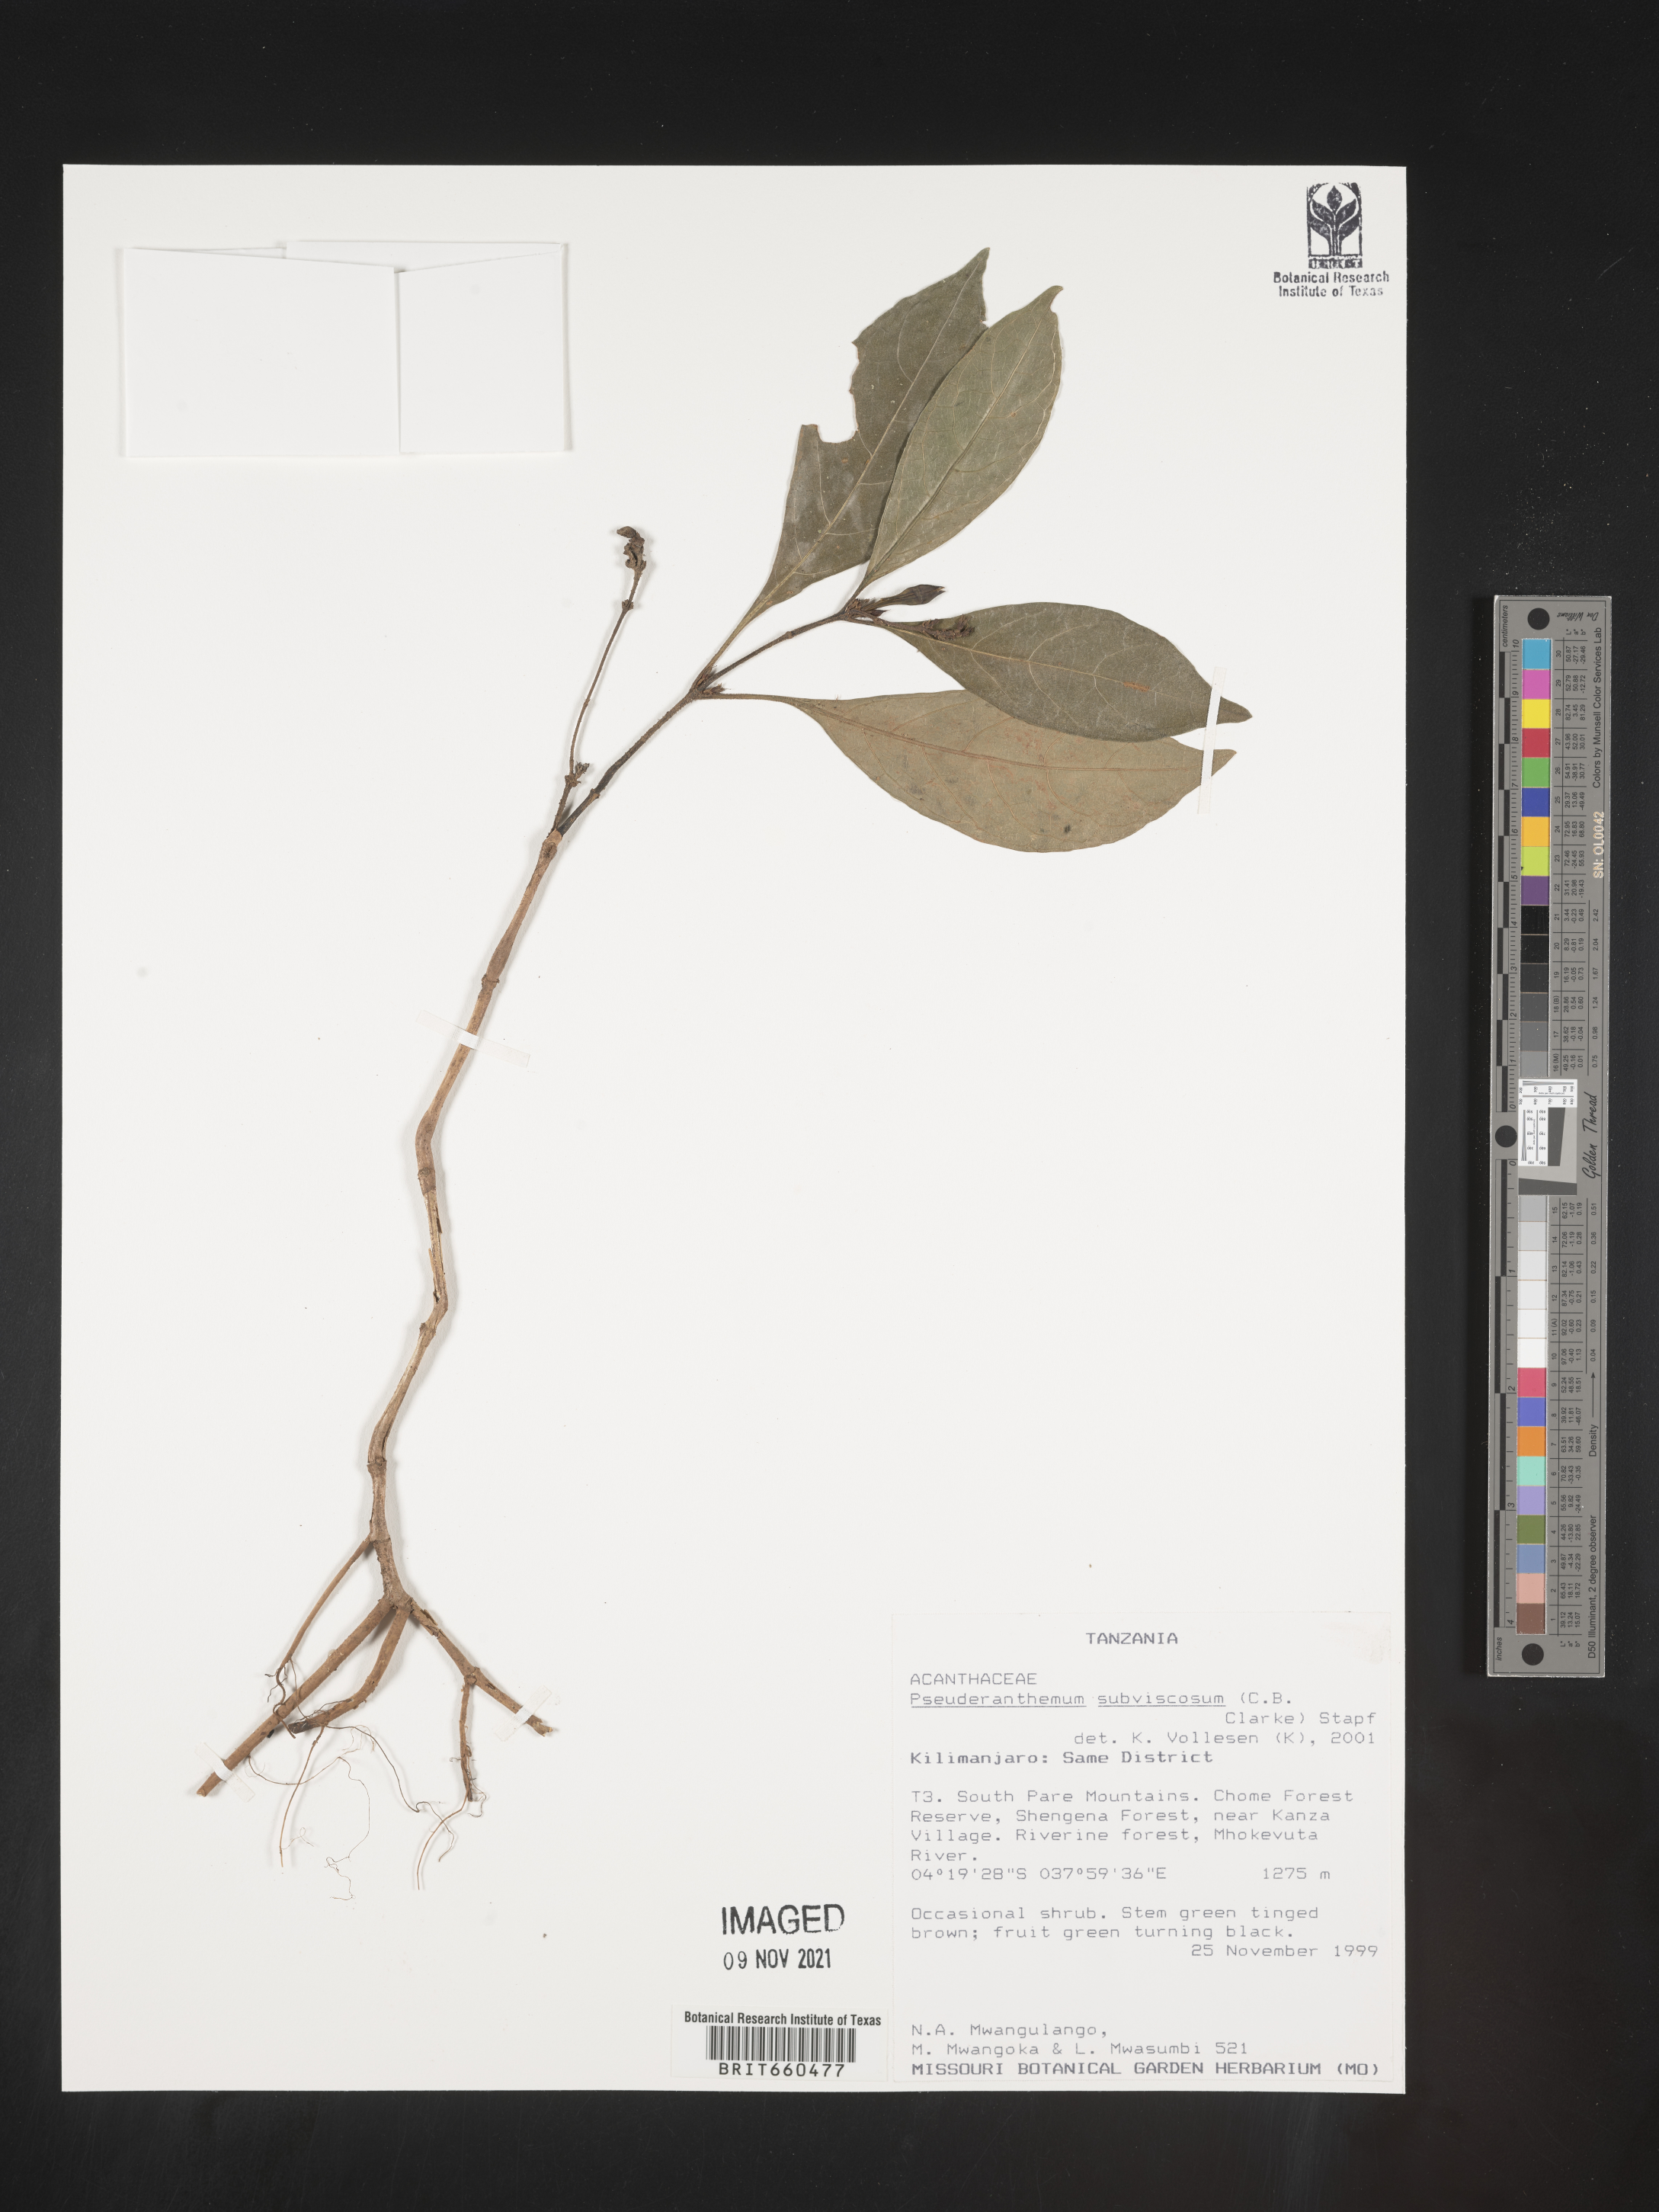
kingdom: Plantae
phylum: Tracheophyta
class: Magnoliopsida
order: Lamiales
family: Acanthaceae
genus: Pseuderanthemum
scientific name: Pseuderanthemum
